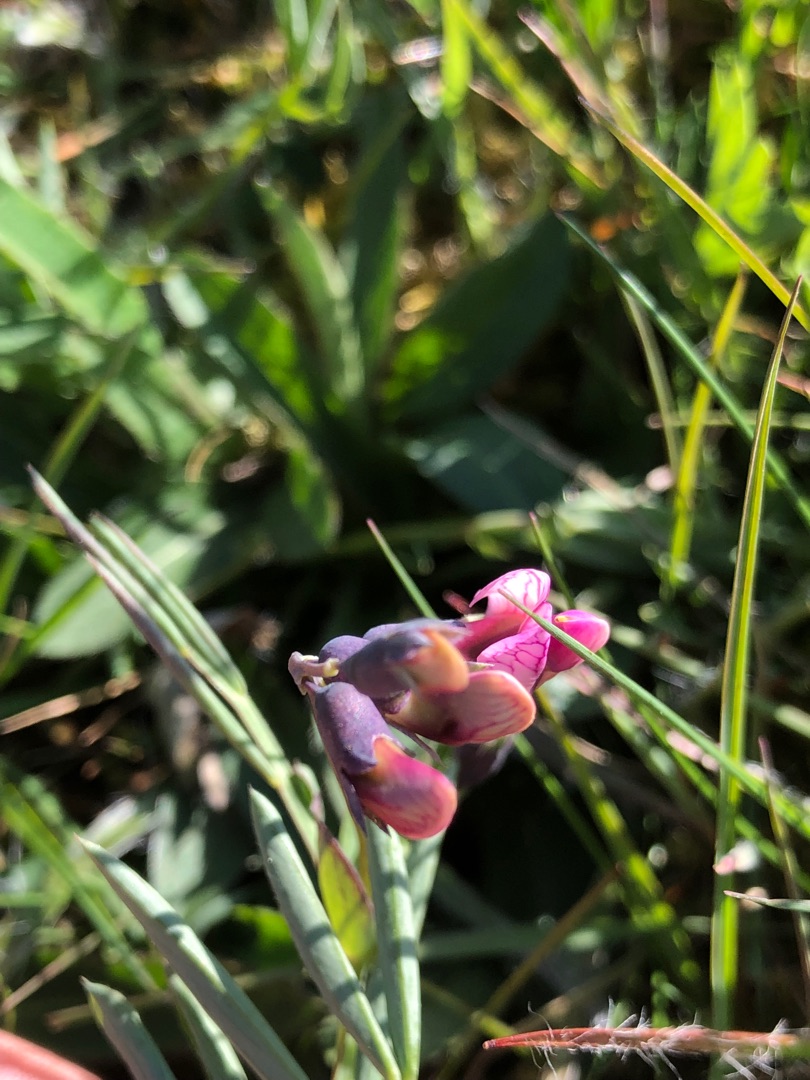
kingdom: Plantae
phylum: Tracheophyta
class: Magnoliopsida
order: Fabales
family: Fabaceae
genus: Lathyrus
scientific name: Lathyrus linifolius
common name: Krat-fladbælg
